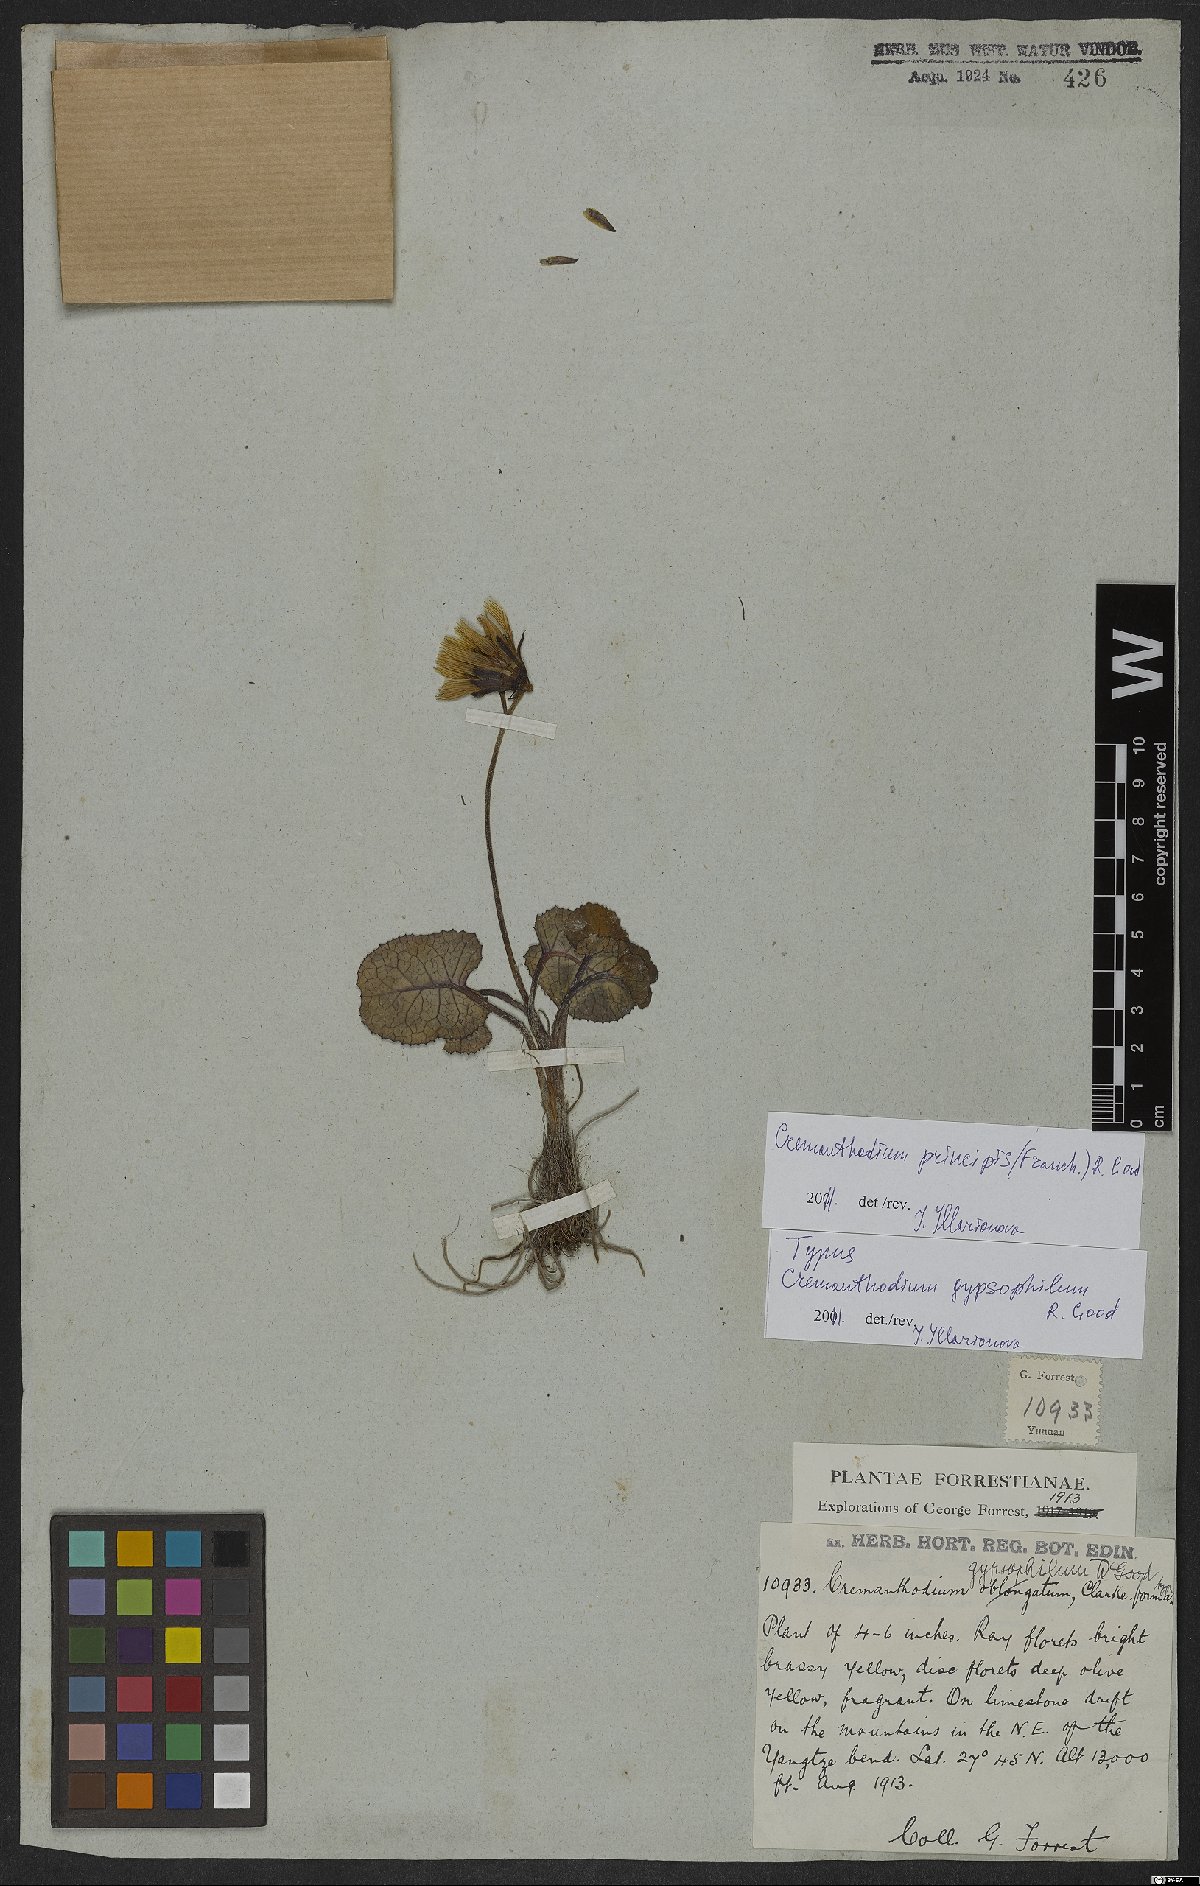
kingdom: Plantae
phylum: Tracheophyta
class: Magnoliopsida
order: Asterales
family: Asteraceae
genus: Cremanthodium
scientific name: Cremanthodium principis
